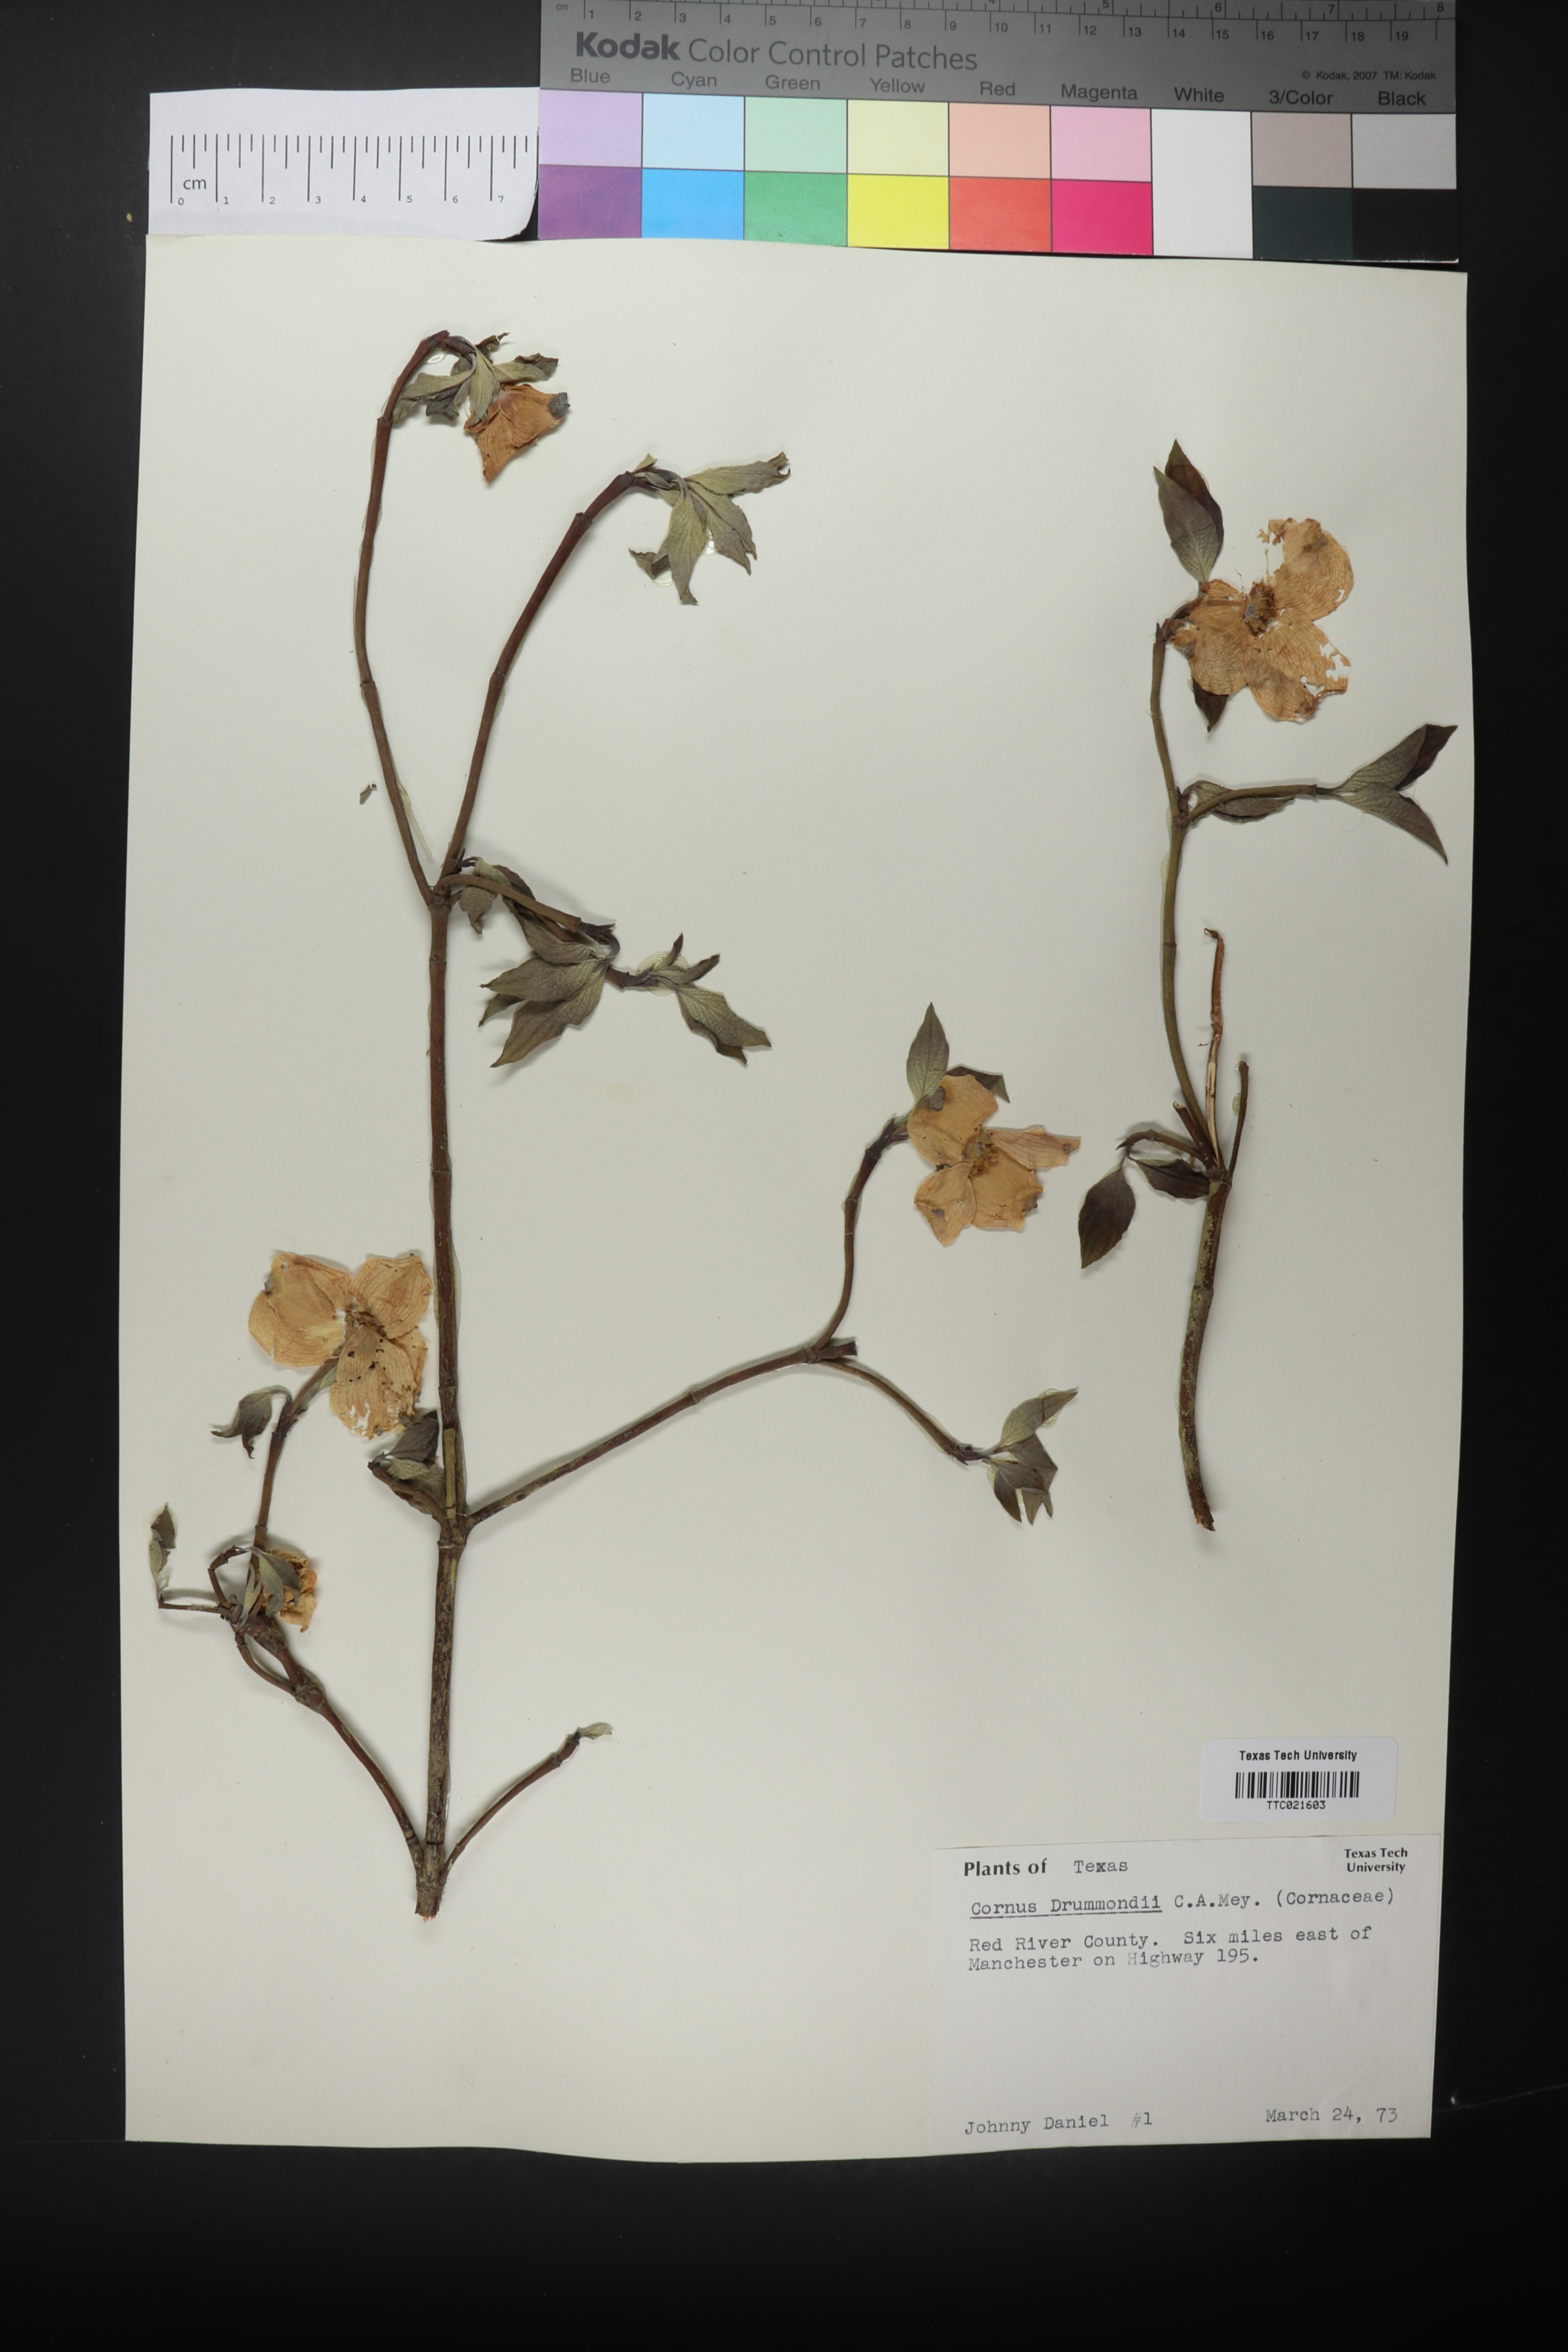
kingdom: Plantae
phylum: Tracheophyta
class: Magnoliopsida
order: Cornales
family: Cornaceae
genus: Cornus
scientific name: Cornus drummondii
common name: Rough-leaf dogwood
